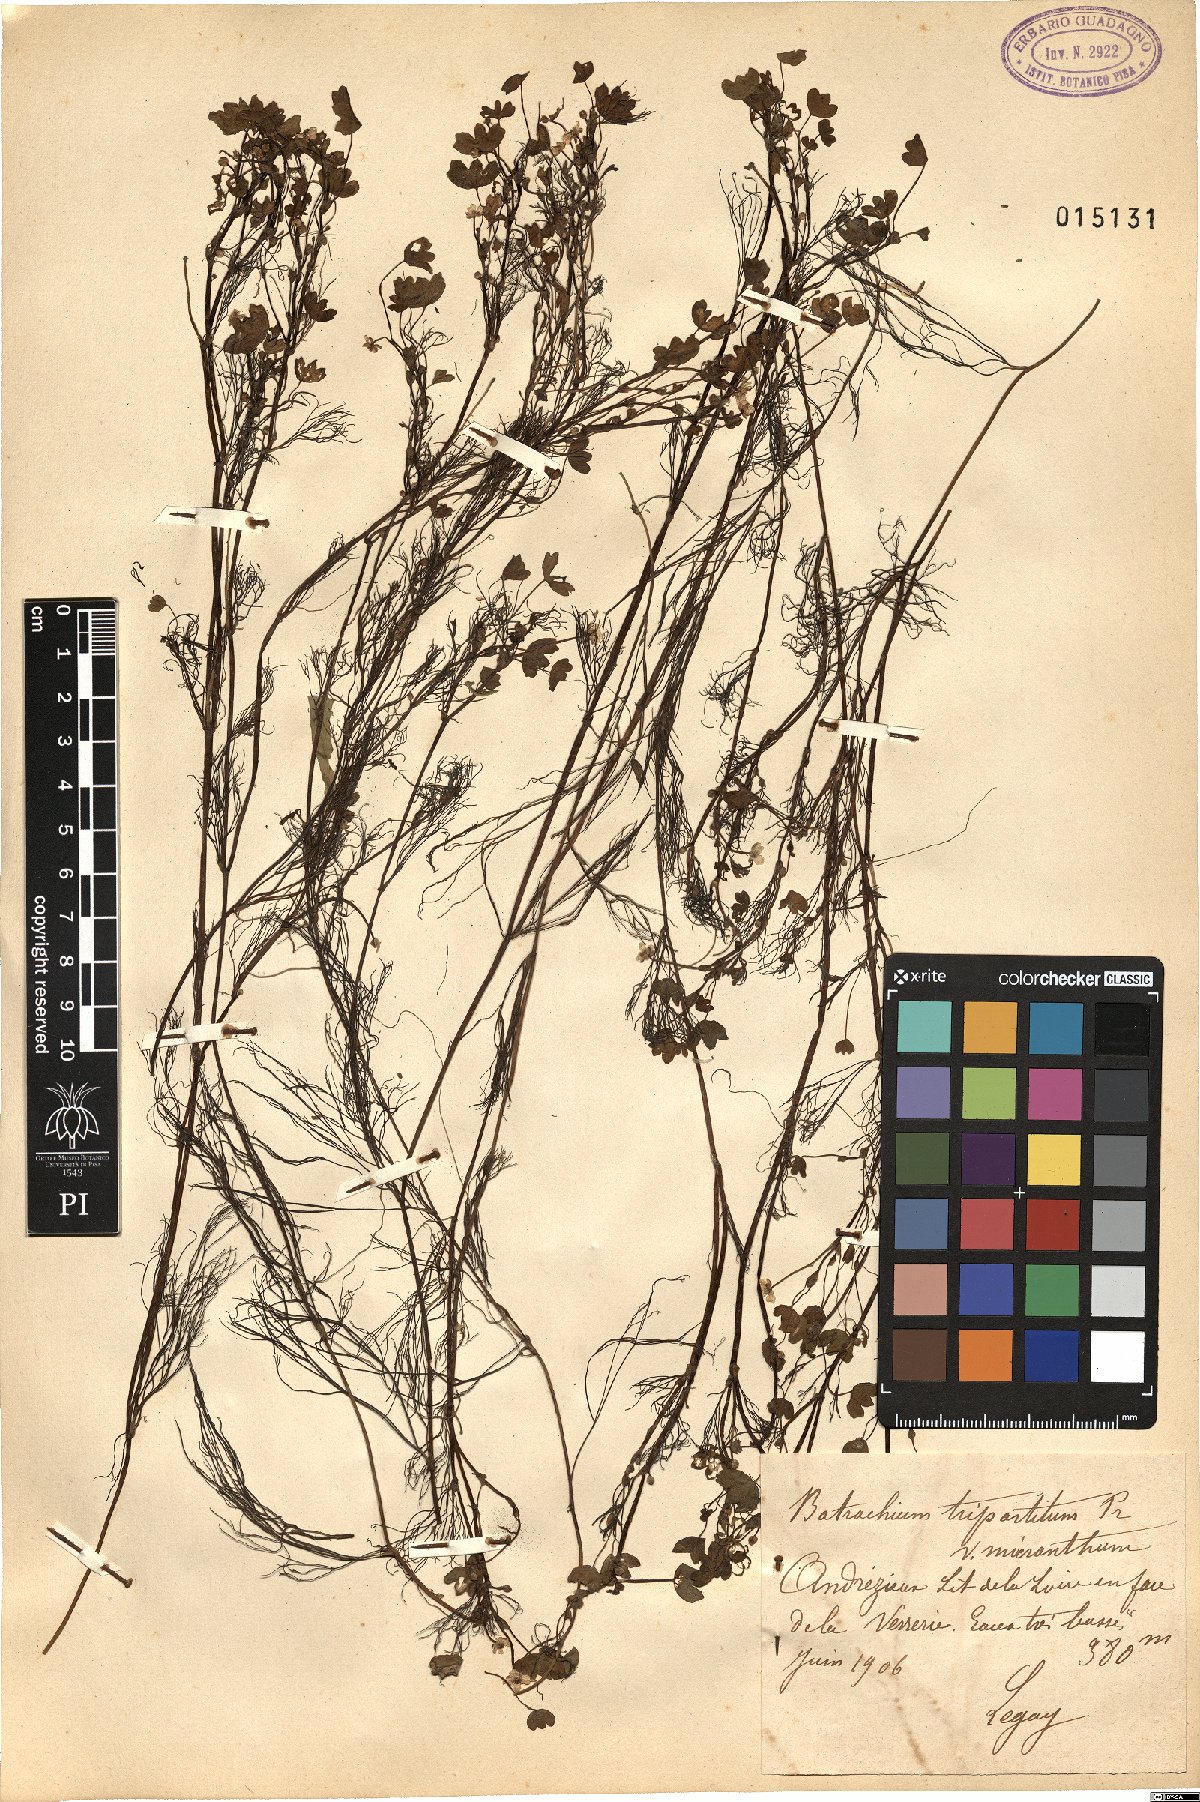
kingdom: Plantae
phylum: Tracheophyta
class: Magnoliopsida
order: Ranunculales
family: Ranunculaceae
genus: Ranunculus
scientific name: Ranunculus tripartitus
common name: Three-lobed crowfoot
